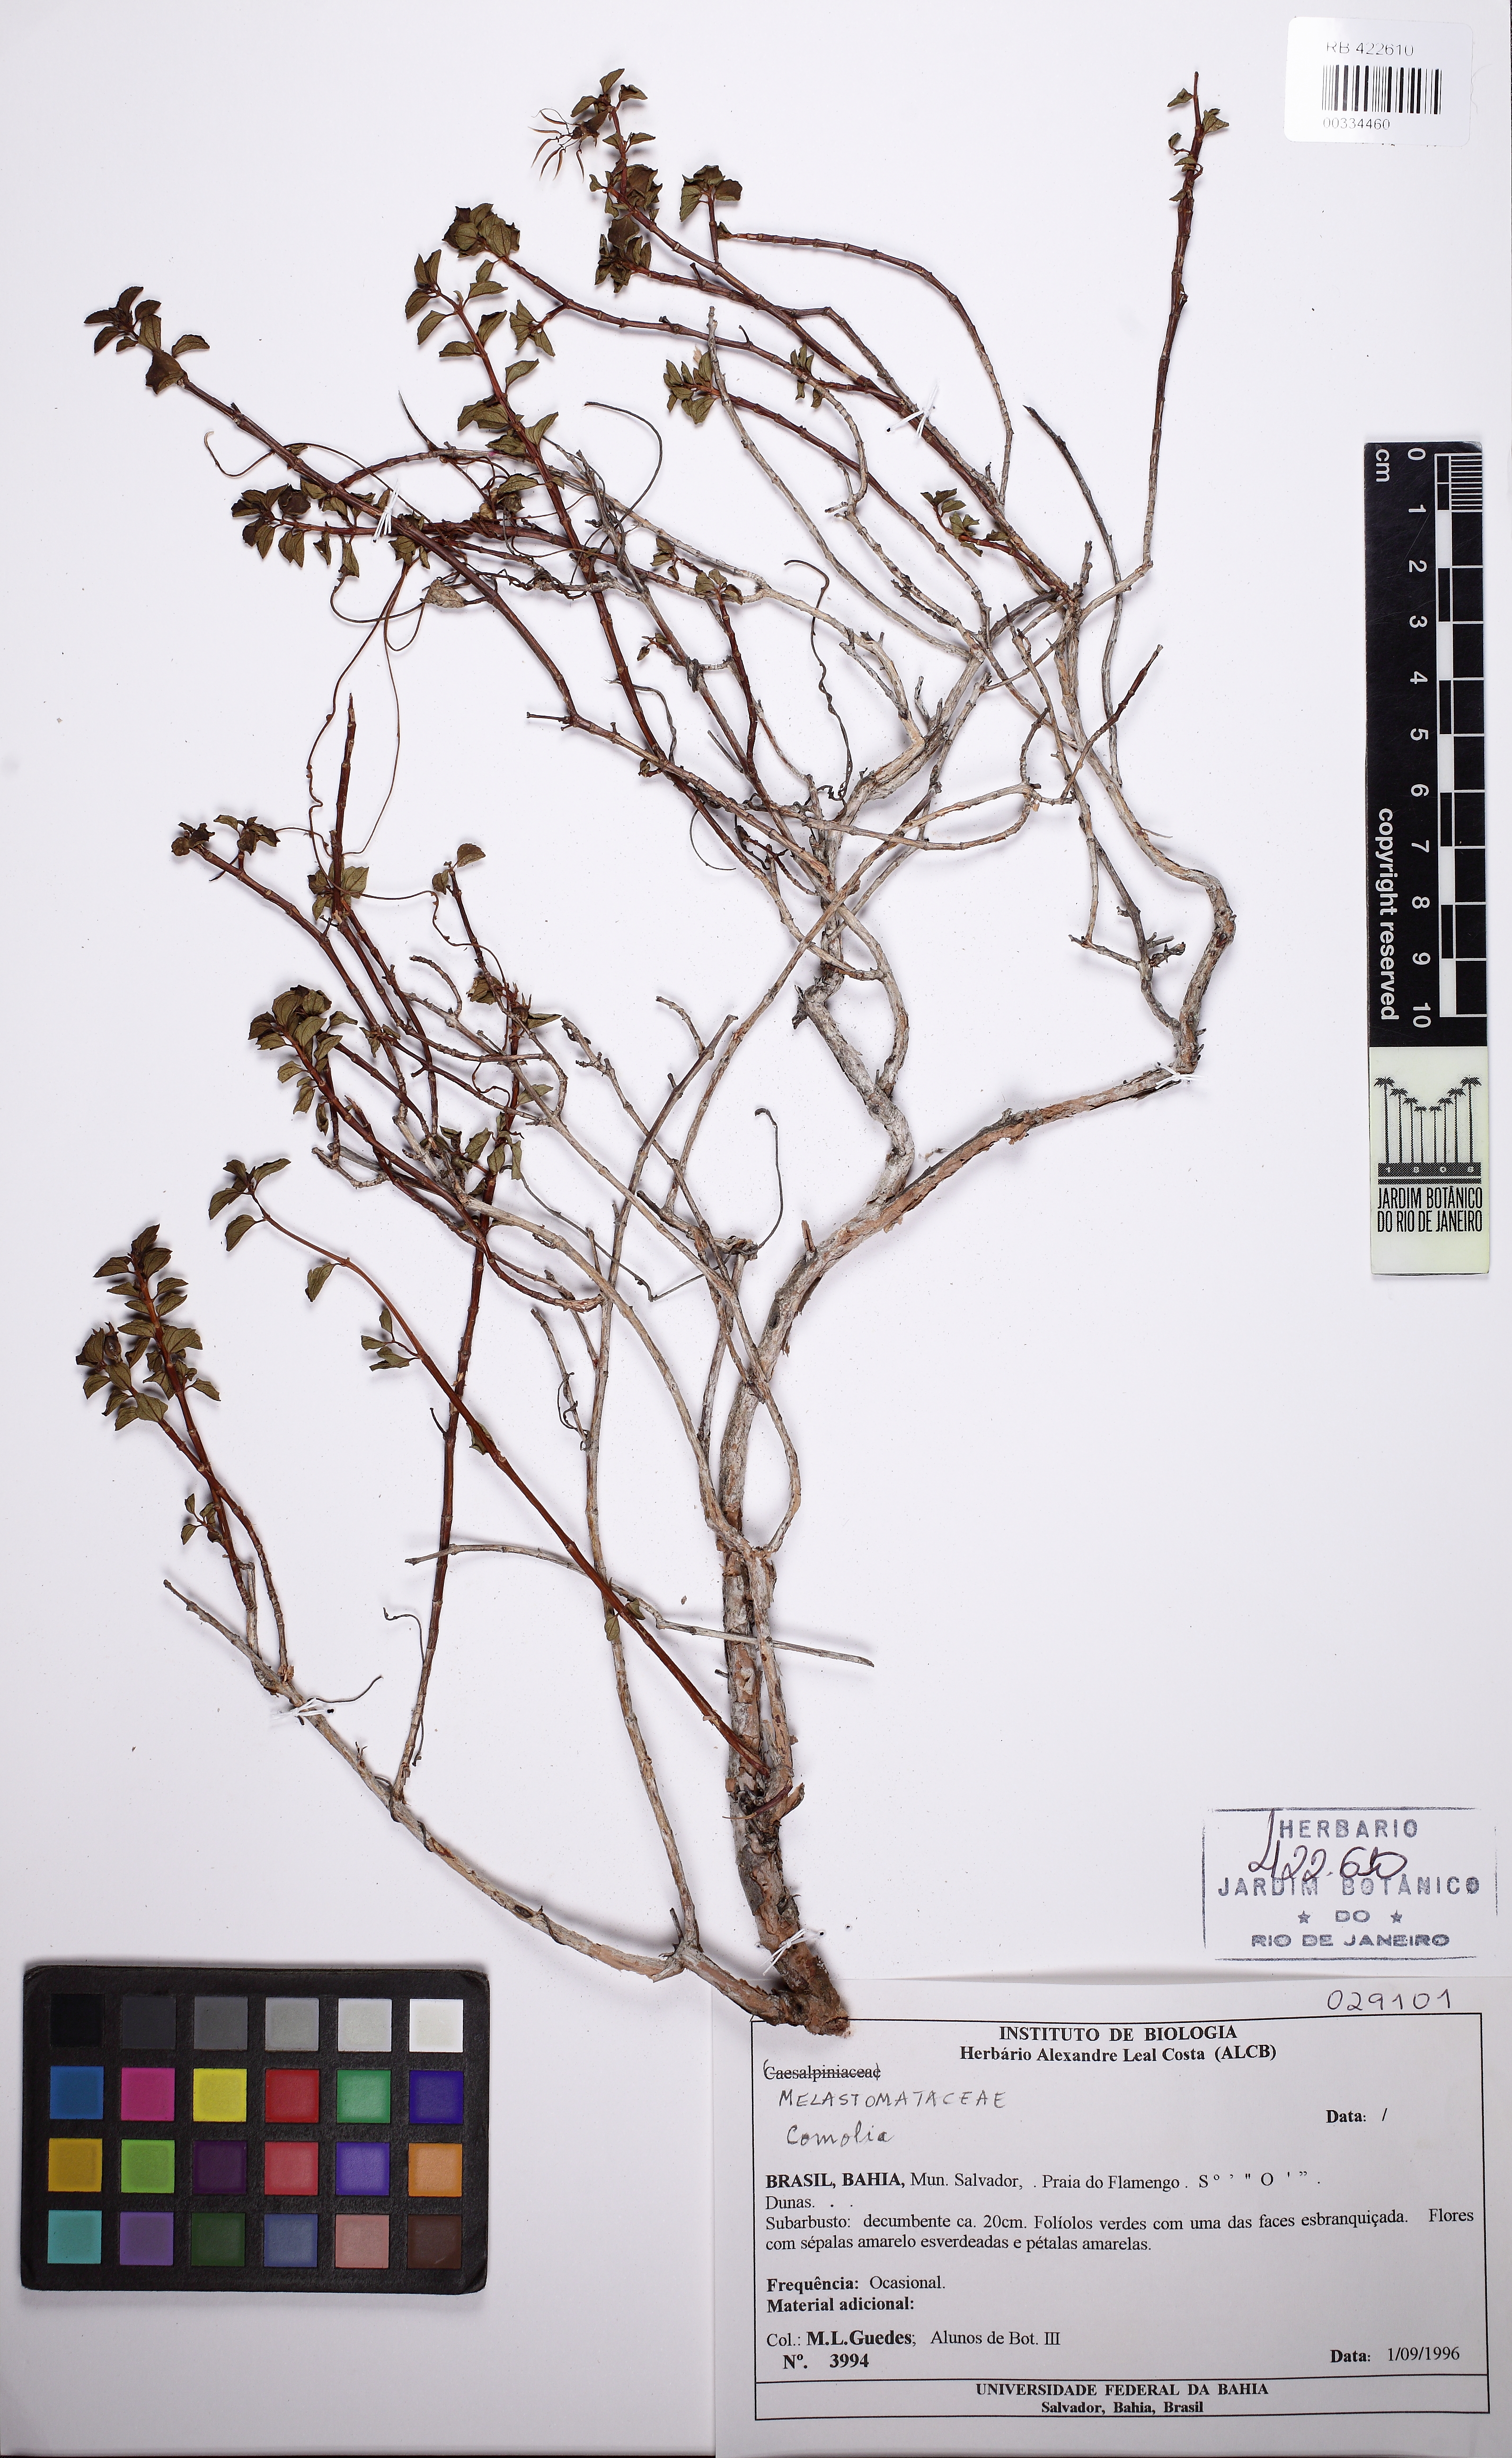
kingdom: Plantae
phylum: Tracheophyta
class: Magnoliopsida
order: Myrtales
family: Melastomataceae
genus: Comolia
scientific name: Comolia abaetensis
